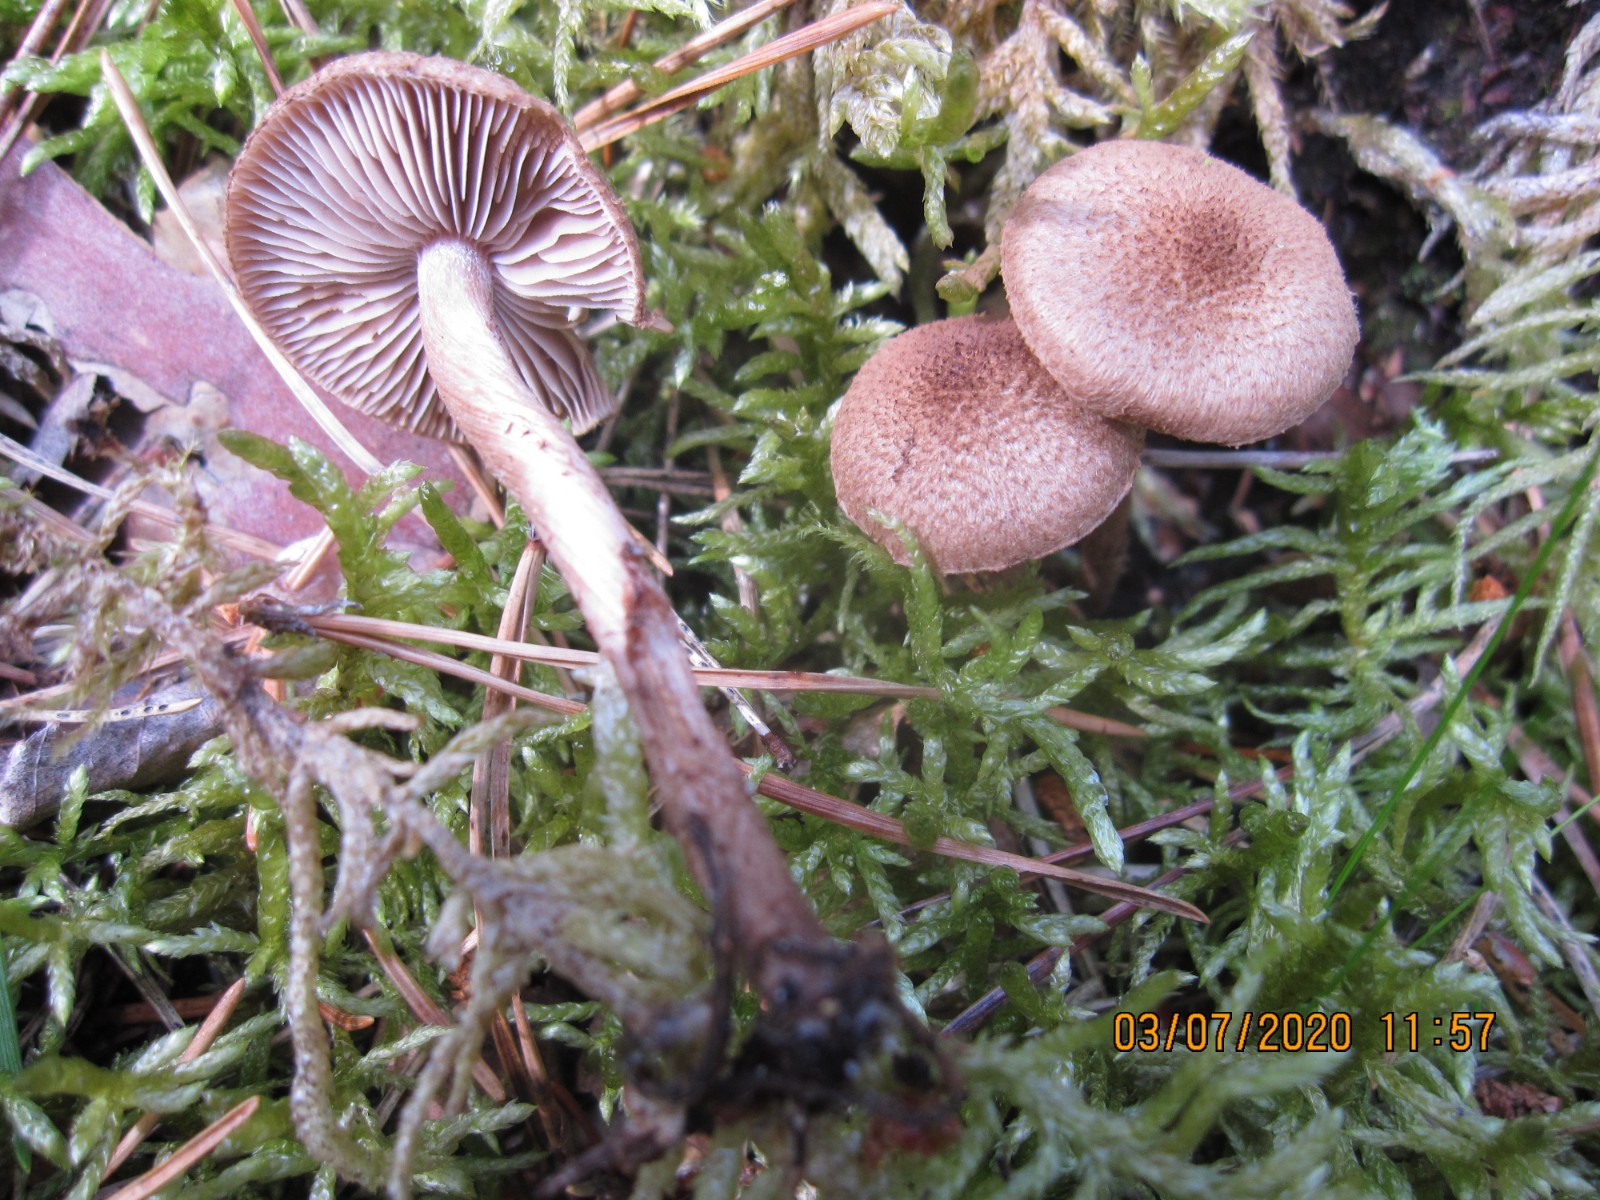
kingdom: Fungi
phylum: Basidiomycota
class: Agaricomycetes
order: Agaricales
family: Inocybaceae
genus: Inocybe
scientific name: Inocybe leptophylla
